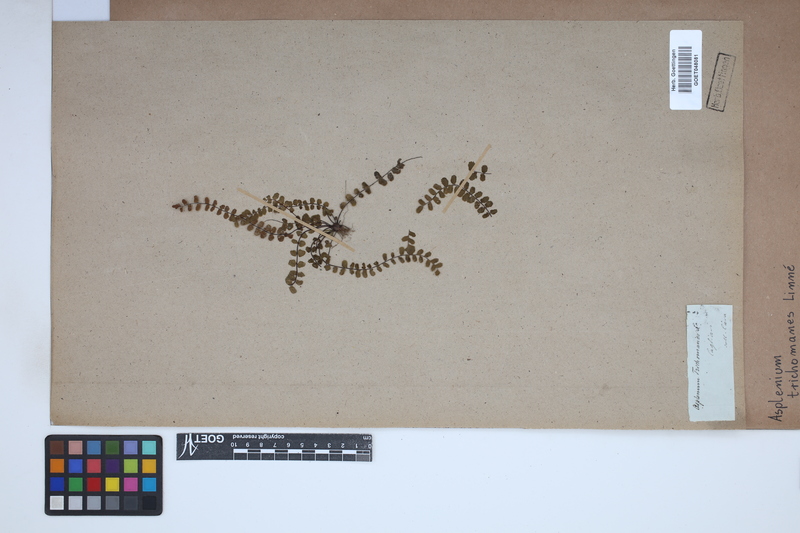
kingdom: Plantae
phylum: Tracheophyta
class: Polypodiopsida
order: Polypodiales
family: Aspleniaceae
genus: Asplenium
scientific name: Asplenium trichomanes
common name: Maidenhair spleenwort
